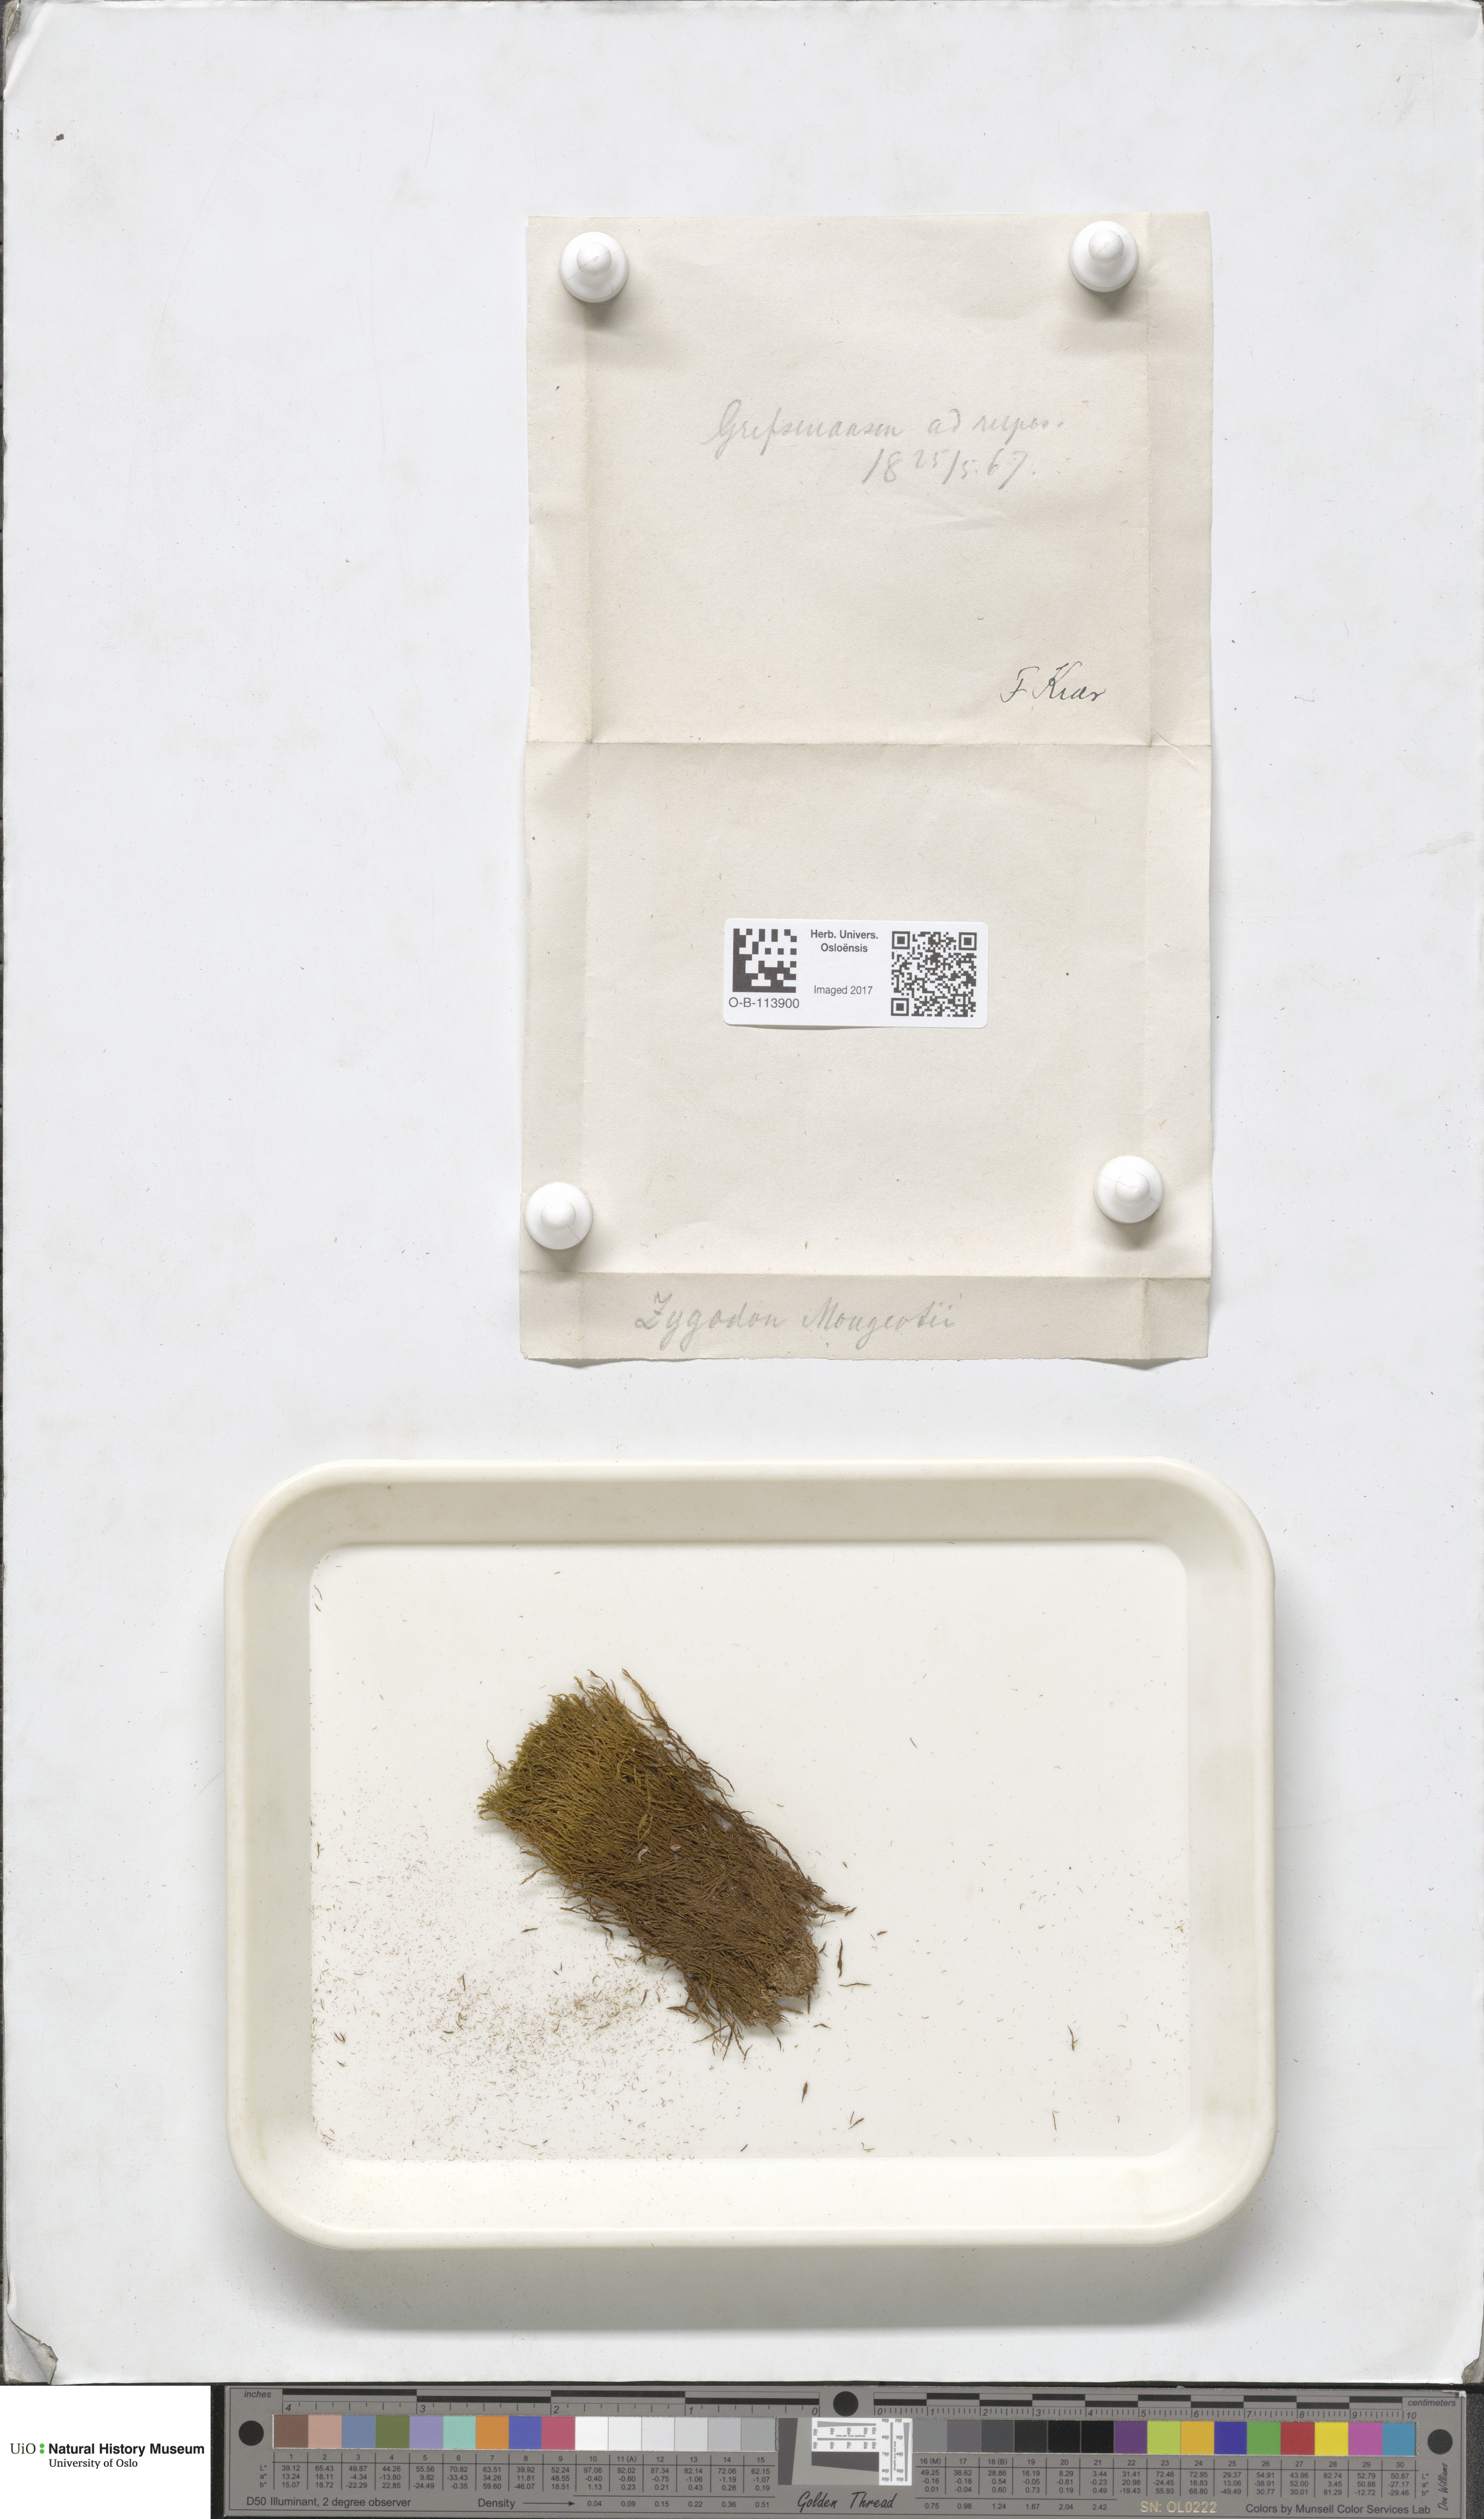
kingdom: Plantae
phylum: Bryophyta
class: Bryopsida
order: Dicranales
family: Amphidiaceae
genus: Amphidium
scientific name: Amphidium mougeotii
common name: Mougeot's yoke moss
